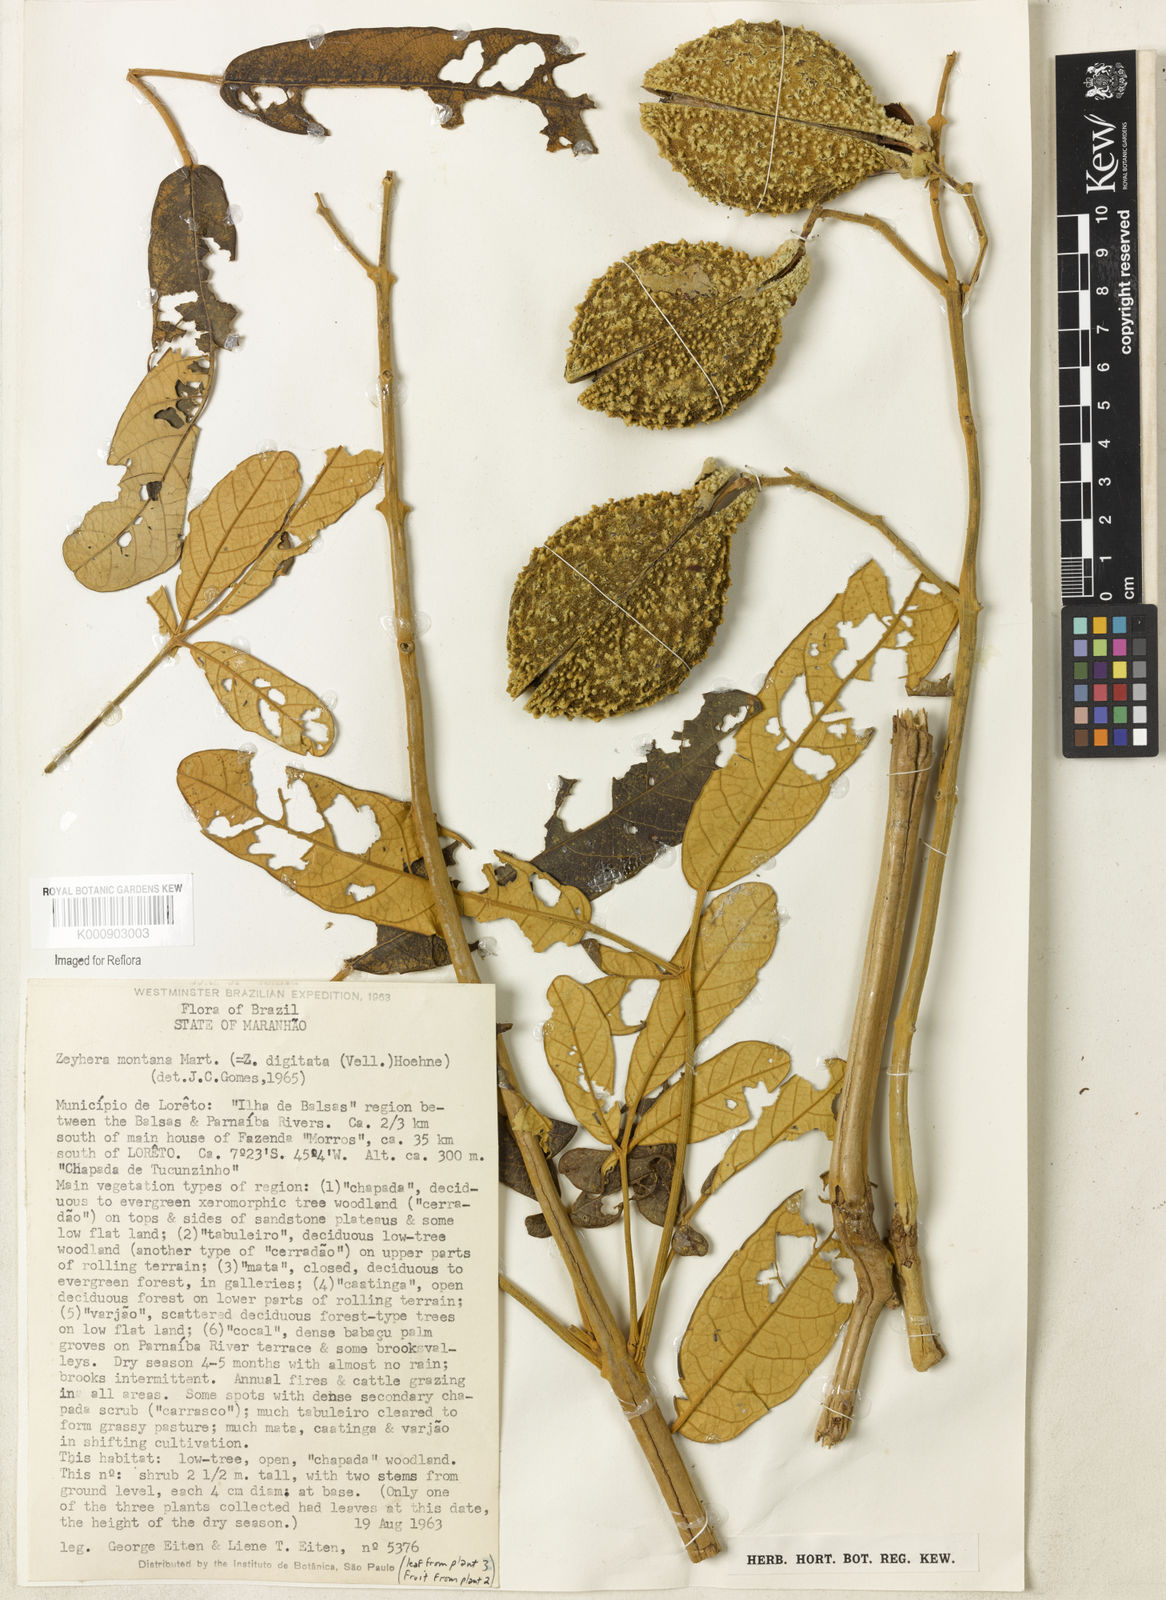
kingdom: Plantae
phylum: Tracheophyta
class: Magnoliopsida
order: Lamiales
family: Bignoniaceae
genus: Zeyheria
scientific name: Zeyheria montana
